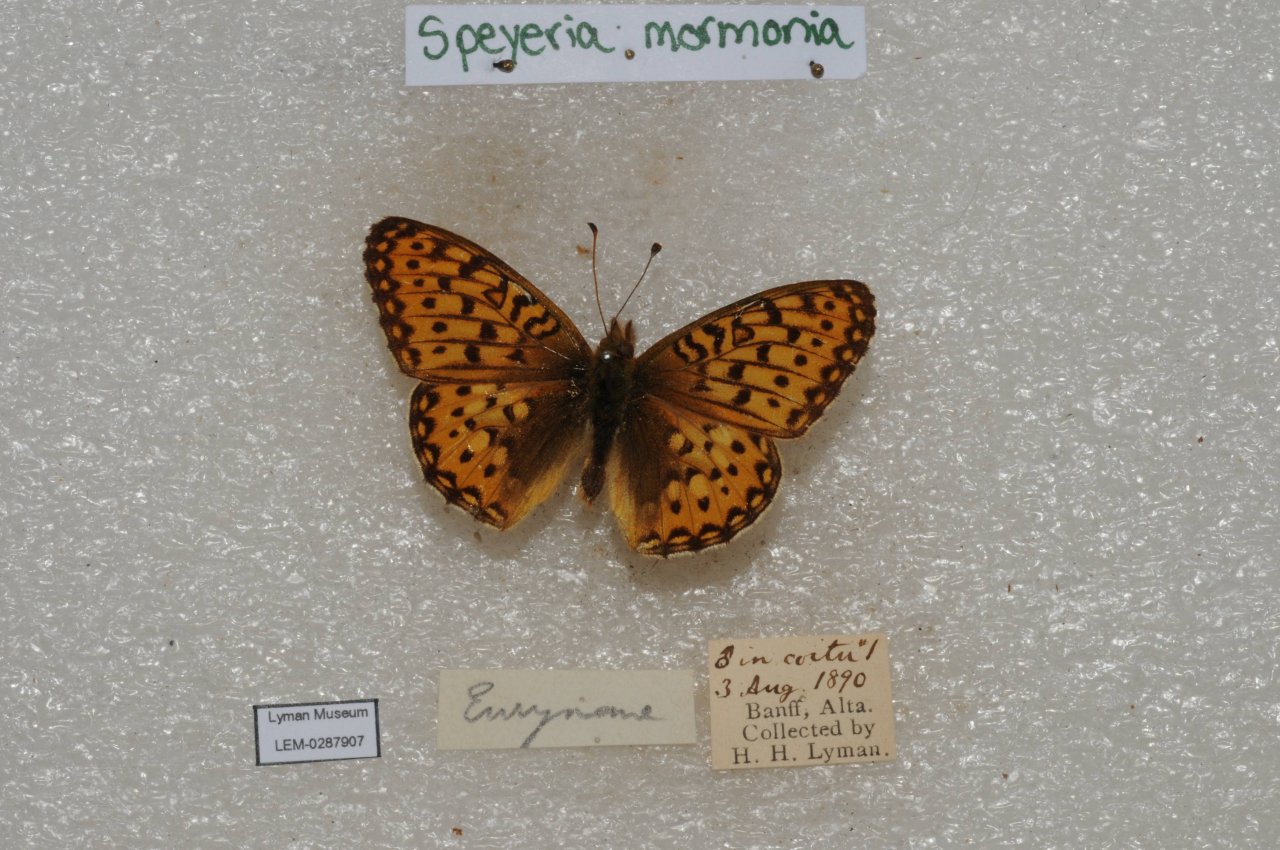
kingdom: Animalia
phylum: Arthropoda
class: Insecta
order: Lepidoptera
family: Nymphalidae
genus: Speyeria
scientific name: Speyeria mormonia
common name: Mormon Fritillary
